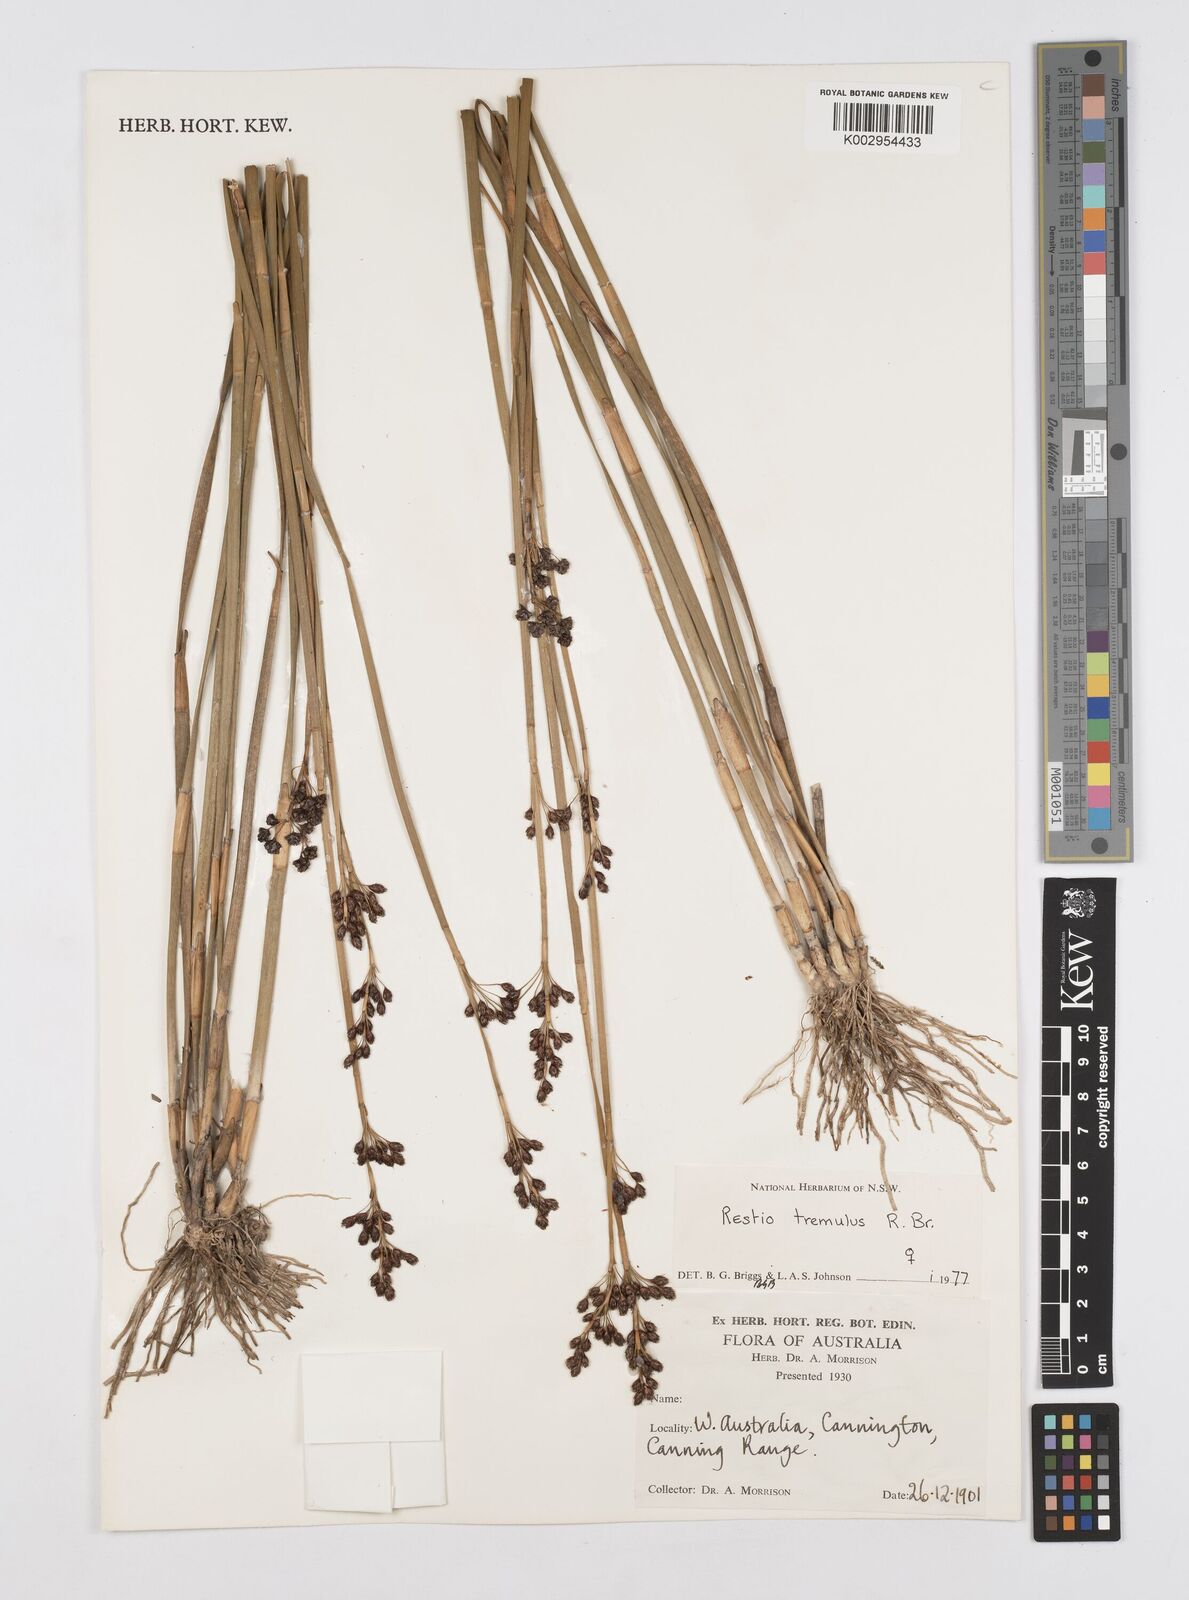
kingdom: Plantae
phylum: Tracheophyta
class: Liliopsida
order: Poales
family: Restionaceae
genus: Tremulina
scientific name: Tremulina tremula
